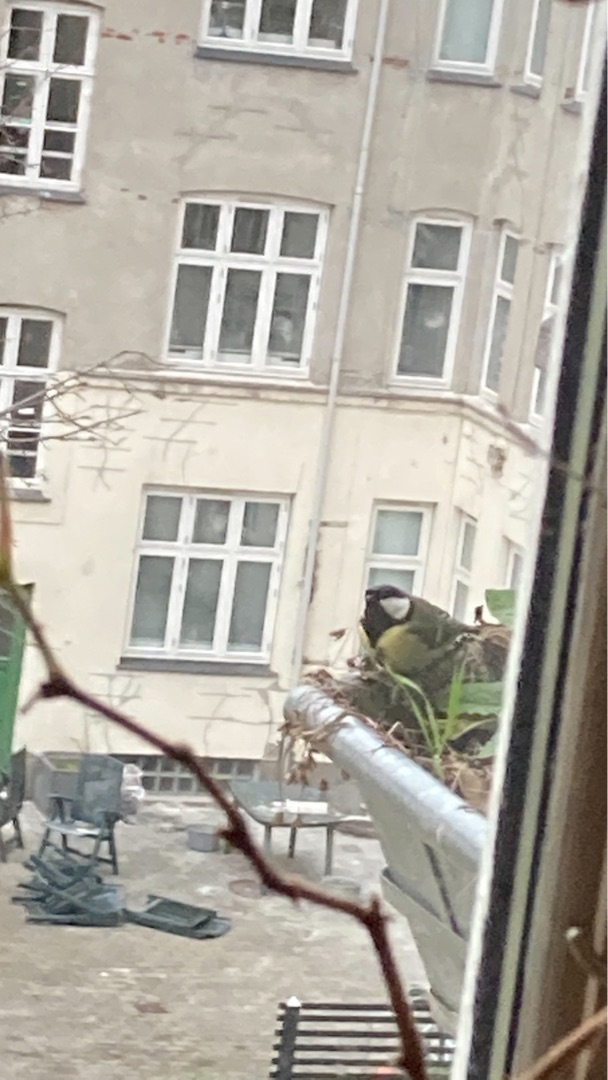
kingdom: Animalia
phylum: Chordata
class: Aves
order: Passeriformes
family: Paridae
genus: Parus
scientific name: Parus major
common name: Musvit
